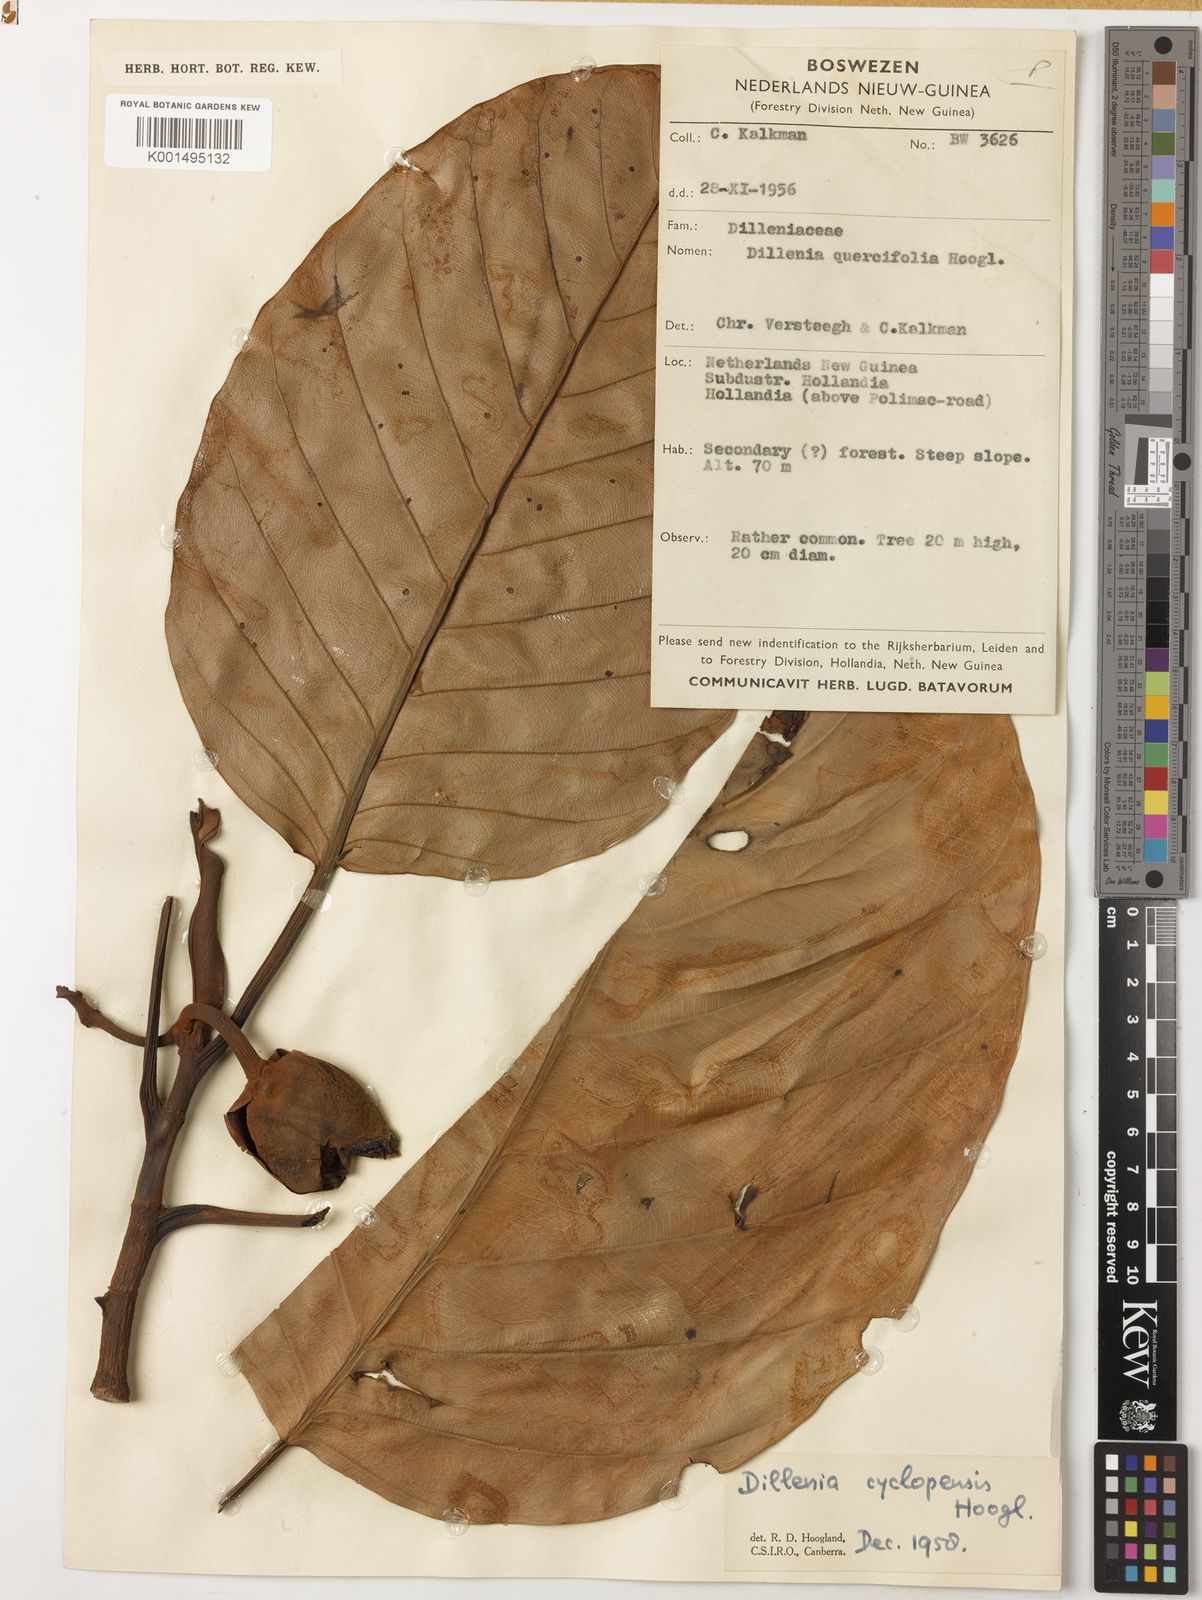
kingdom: Plantae
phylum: Tracheophyta
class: Magnoliopsida
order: Dilleniales
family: Dilleniaceae
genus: Dillenia
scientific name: Dillenia cyclopensis
